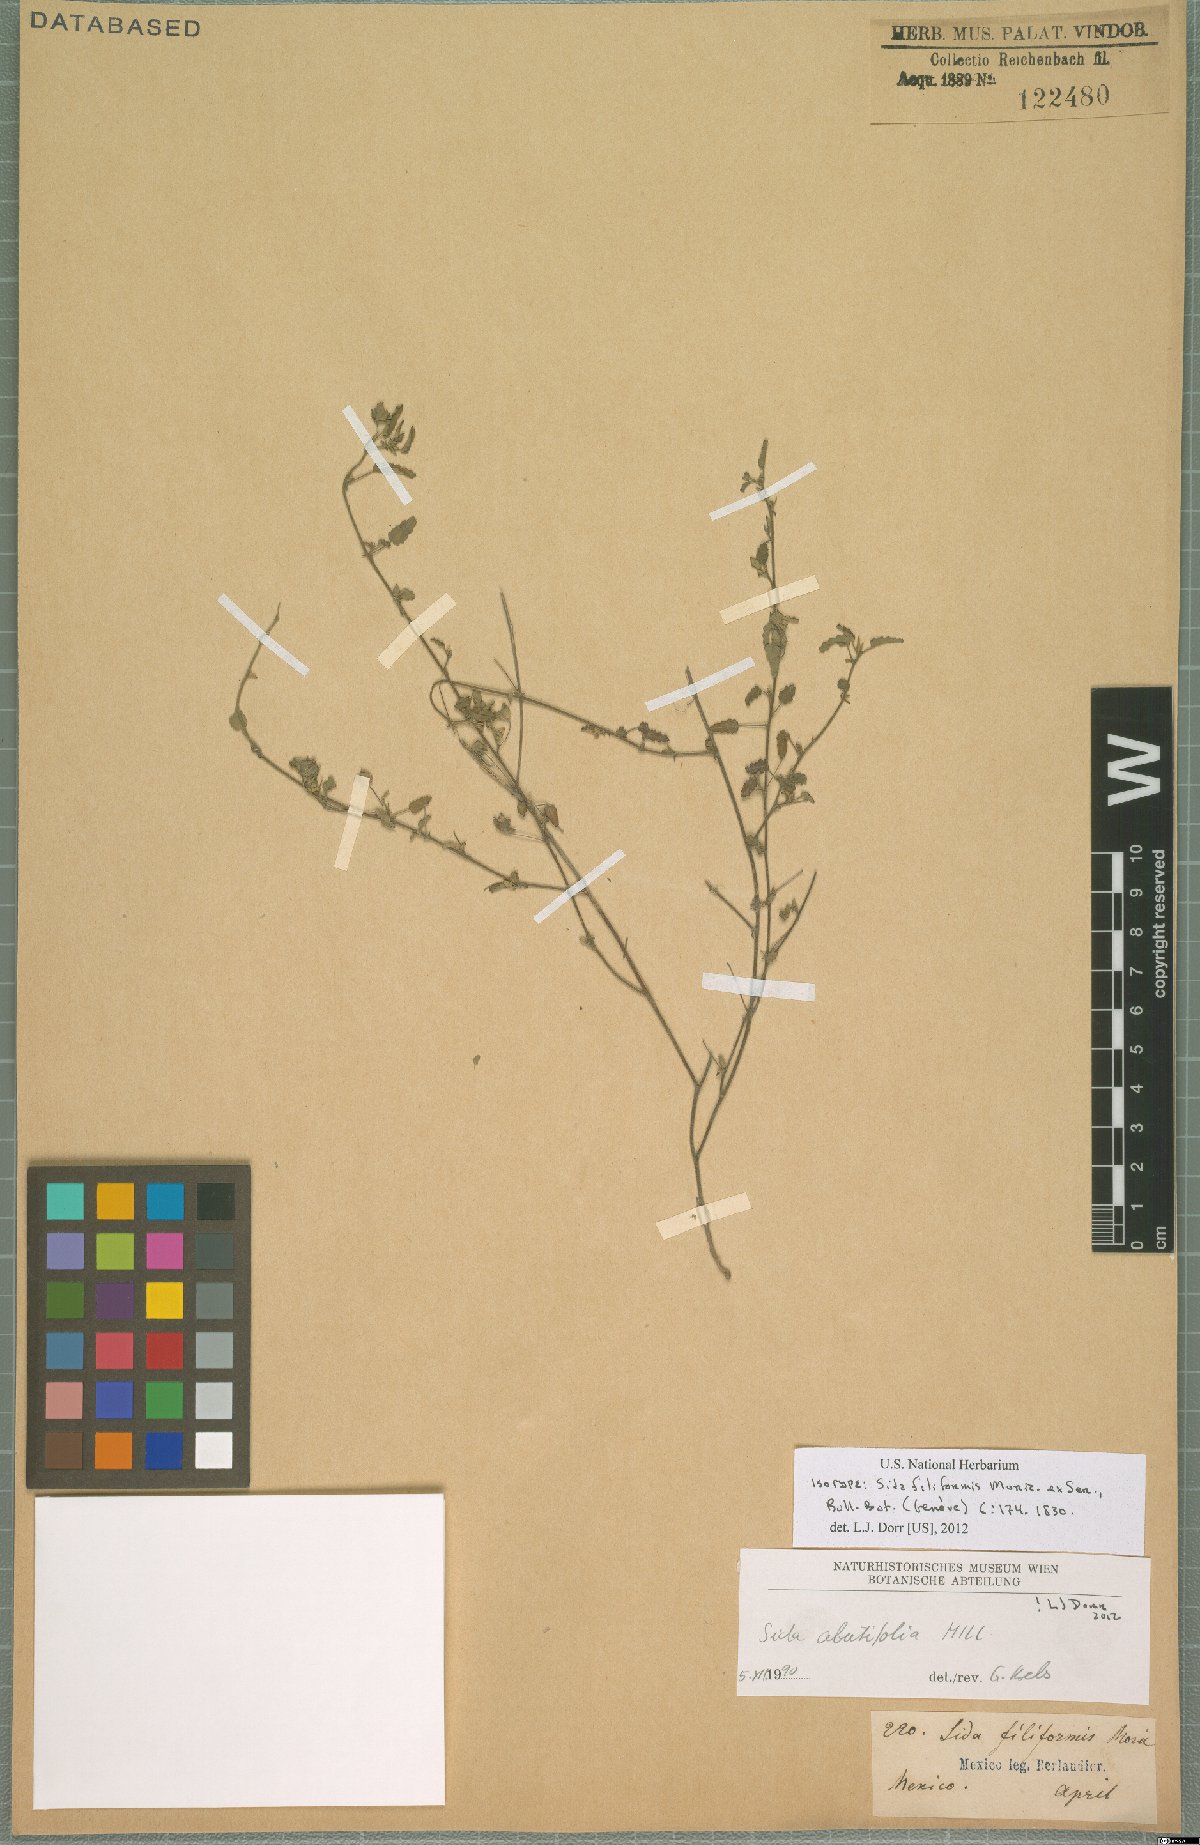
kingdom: Plantae
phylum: Tracheophyta
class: Magnoliopsida
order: Malvales
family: Malvaceae
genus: Sida
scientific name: Sida abutifolia
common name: Spreading fantails
